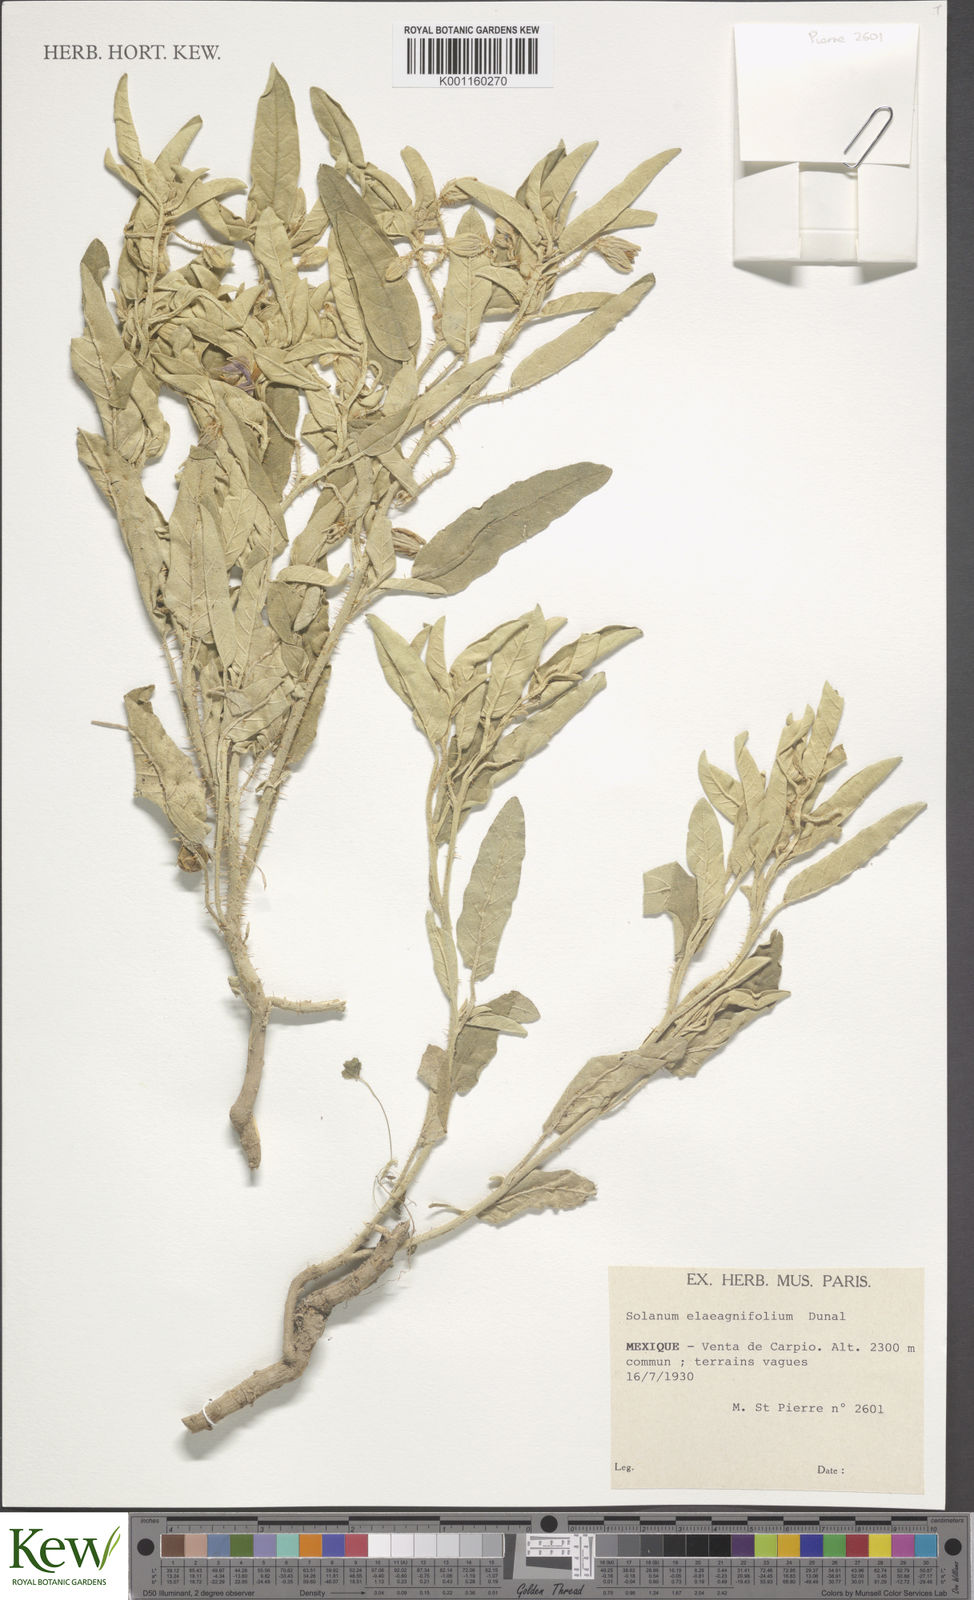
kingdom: Plantae
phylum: Tracheophyta
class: Magnoliopsida
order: Solanales
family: Solanaceae
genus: Solanum
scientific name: Solanum elaeagnifolium
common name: Silverleaf nightshade
